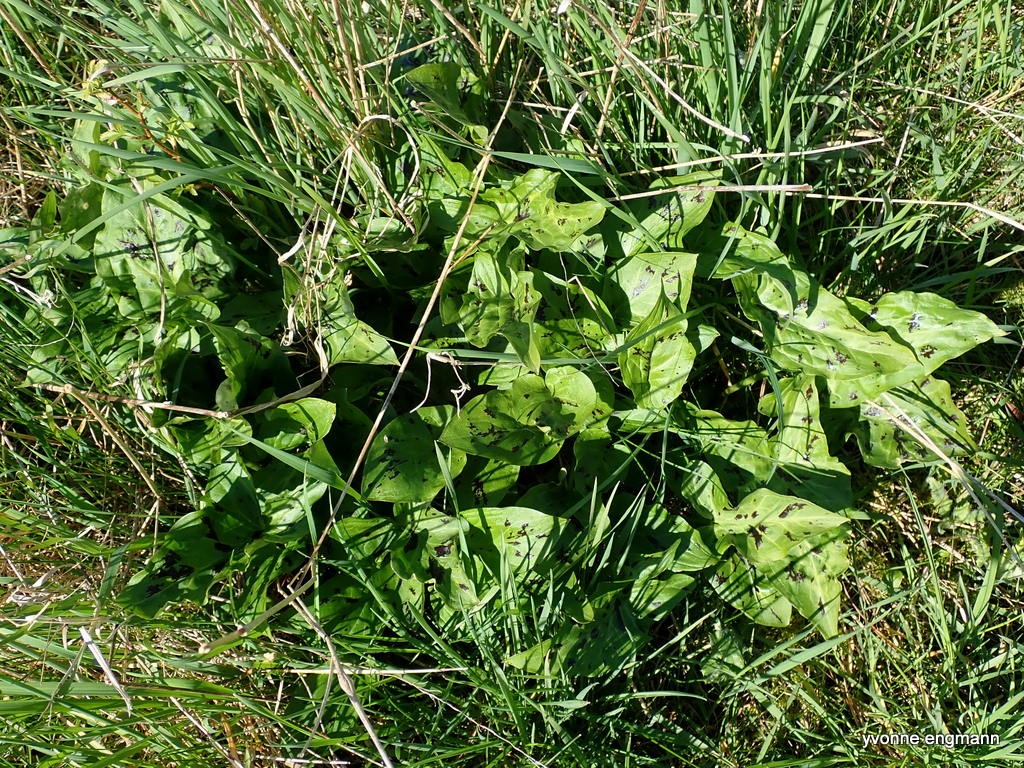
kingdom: Plantae
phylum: Tracheophyta
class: Liliopsida
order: Alismatales
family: Araceae
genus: Arum
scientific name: Arum maculatum
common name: Plettet arum
